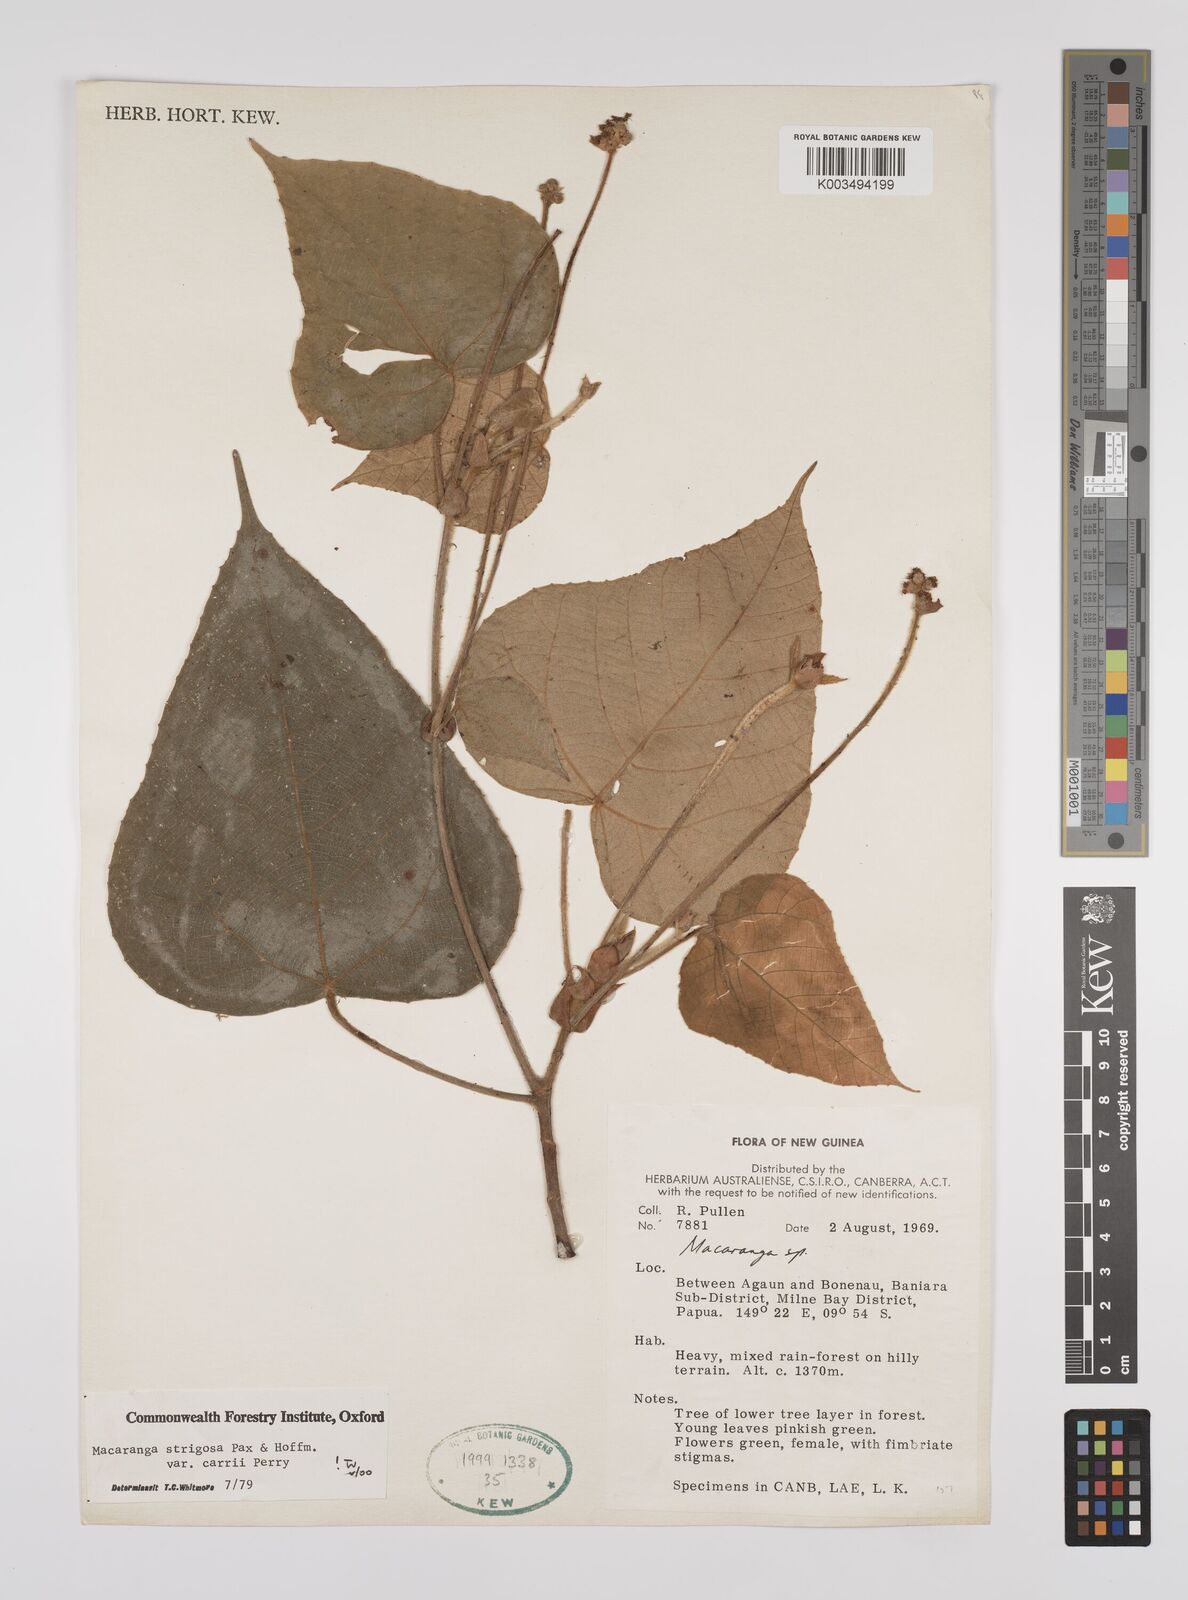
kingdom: Plantae
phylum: Tracheophyta
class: Magnoliopsida
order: Malpighiales
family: Euphorbiaceae
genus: Macaranga
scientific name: Macaranga strigosa
